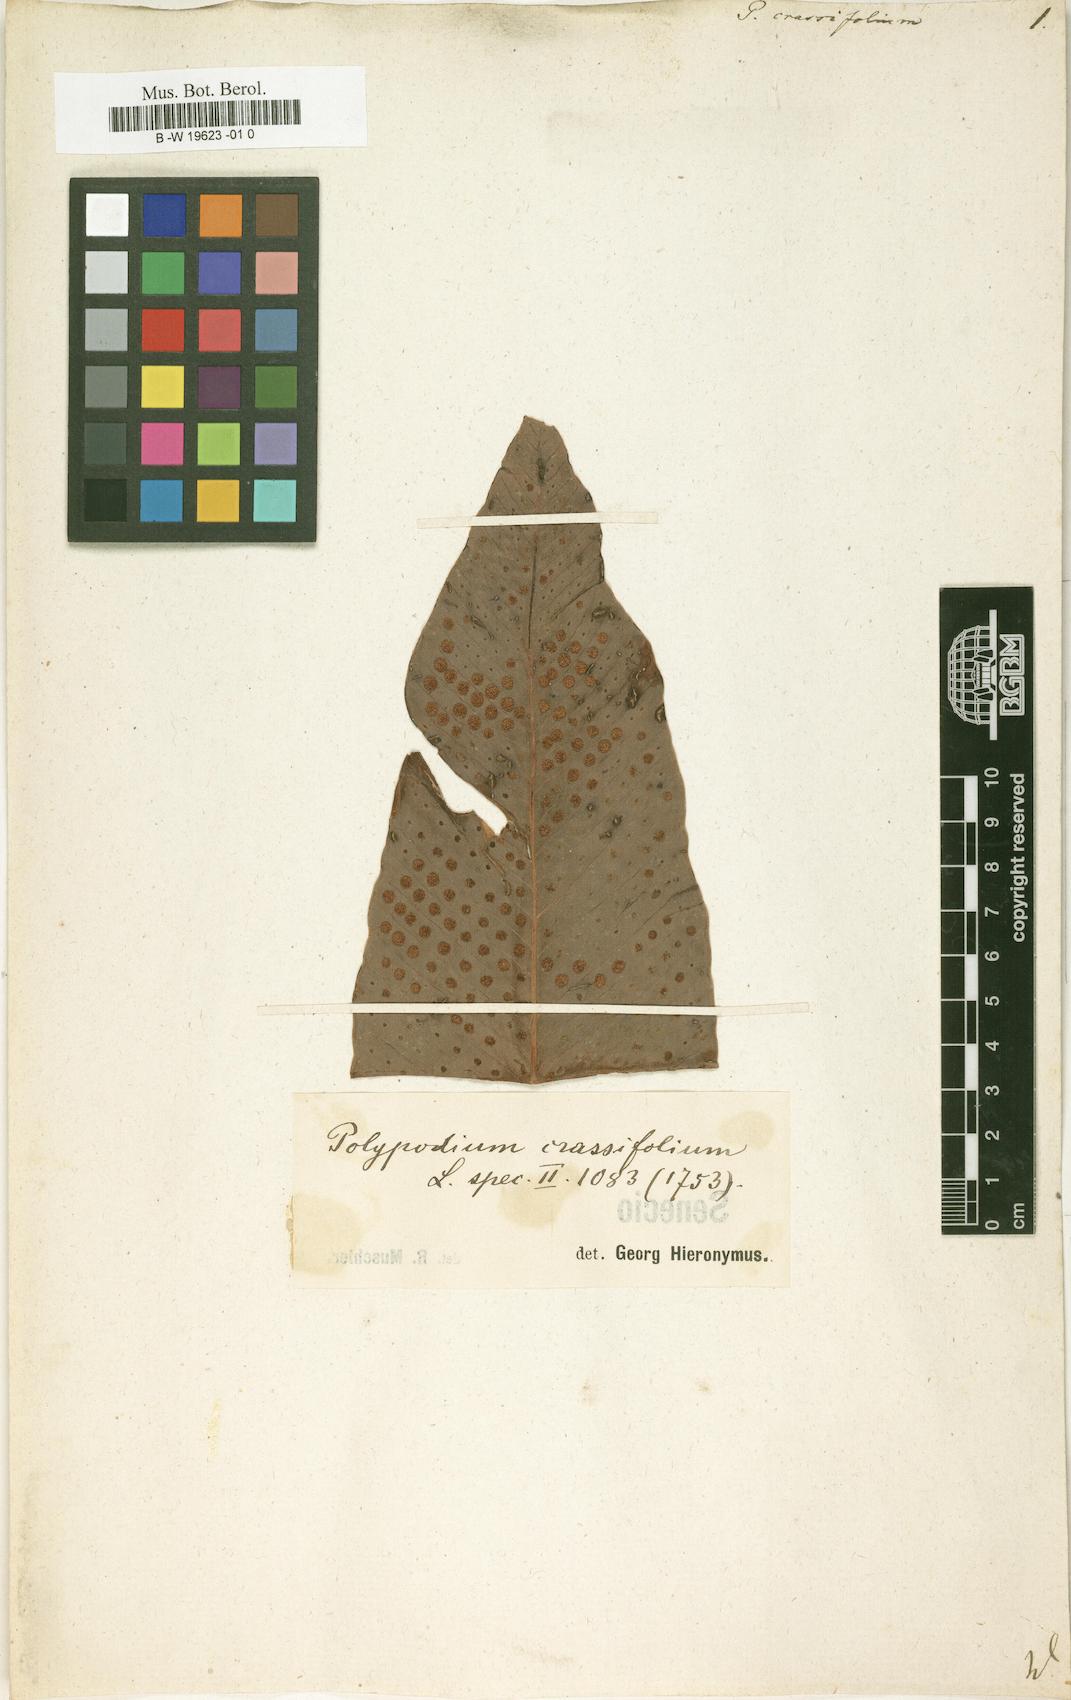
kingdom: Plantae
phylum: Tracheophyta
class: Polypodiopsida
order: Polypodiales
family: Polypodiaceae
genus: Niphidium
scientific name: Niphidium crassifolium
